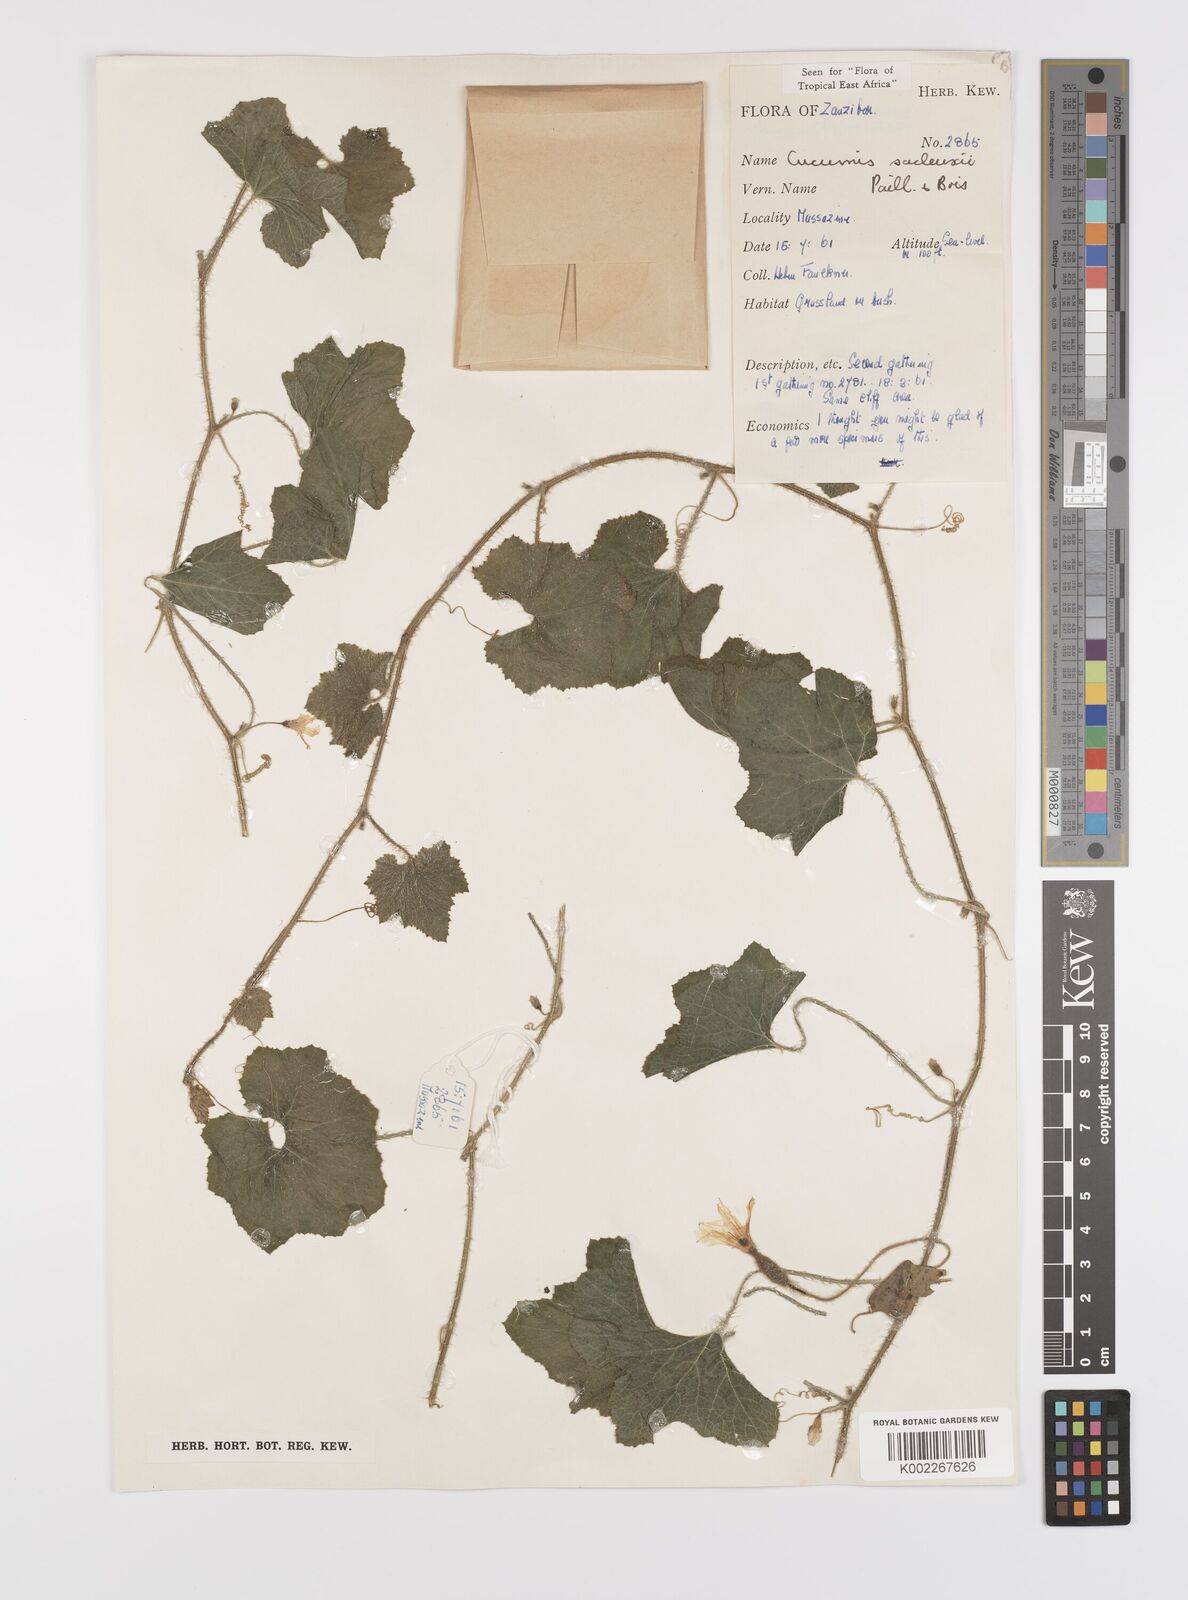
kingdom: Plantae
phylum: Tracheophyta
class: Magnoliopsida
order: Cucurbitales
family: Cucurbitaceae
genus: Cucumis
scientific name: Cucumis sacleuxii
